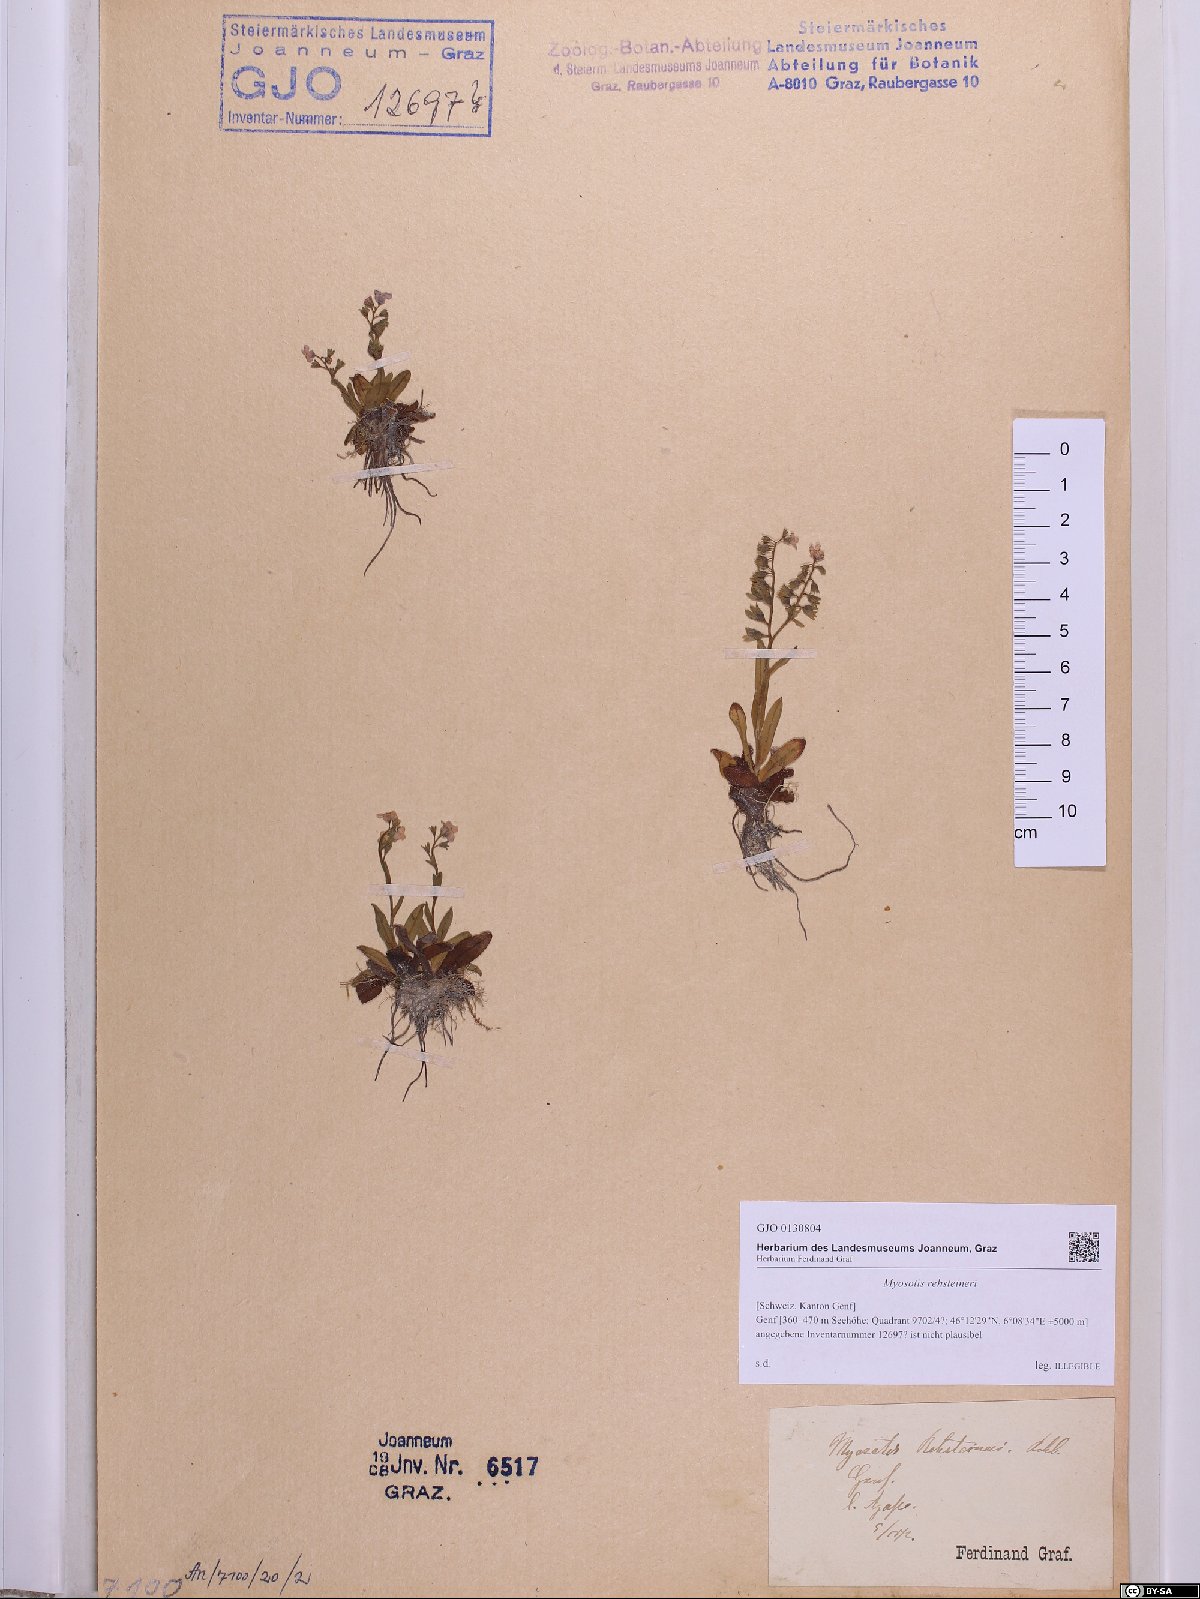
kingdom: Plantae
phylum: Tracheophyta
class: Magnoliopsida
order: Boraginales
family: Boraginaceae
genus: Myosotis
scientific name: Myosotis rehsteineri
